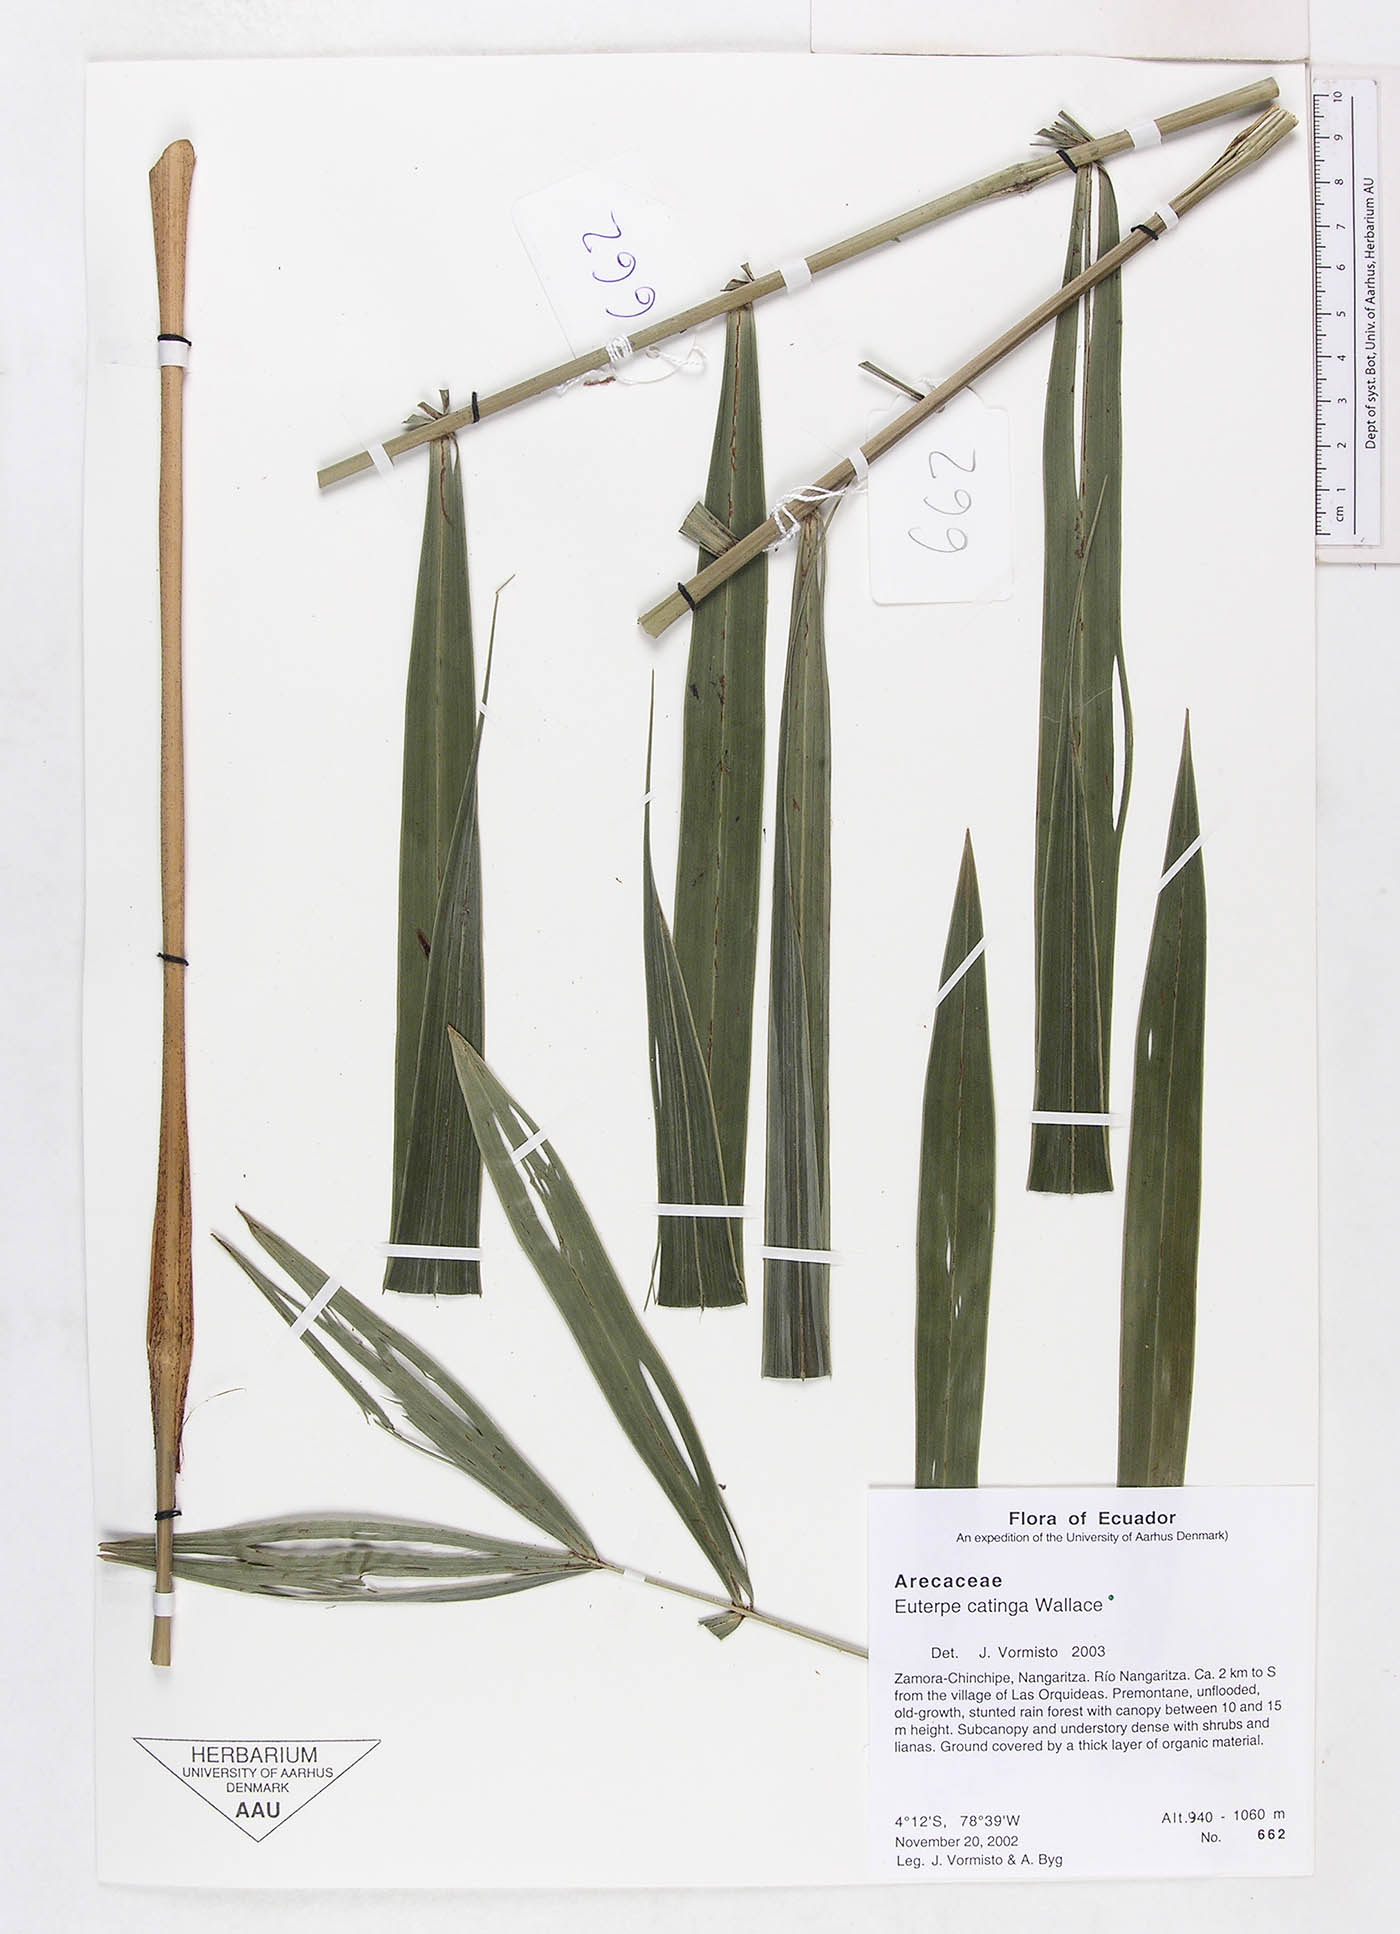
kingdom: Plantae
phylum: Tracheophyta
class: Liliopsida
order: Arecales
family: Arecaceae
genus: Euterpe
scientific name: Euterpe catinga
